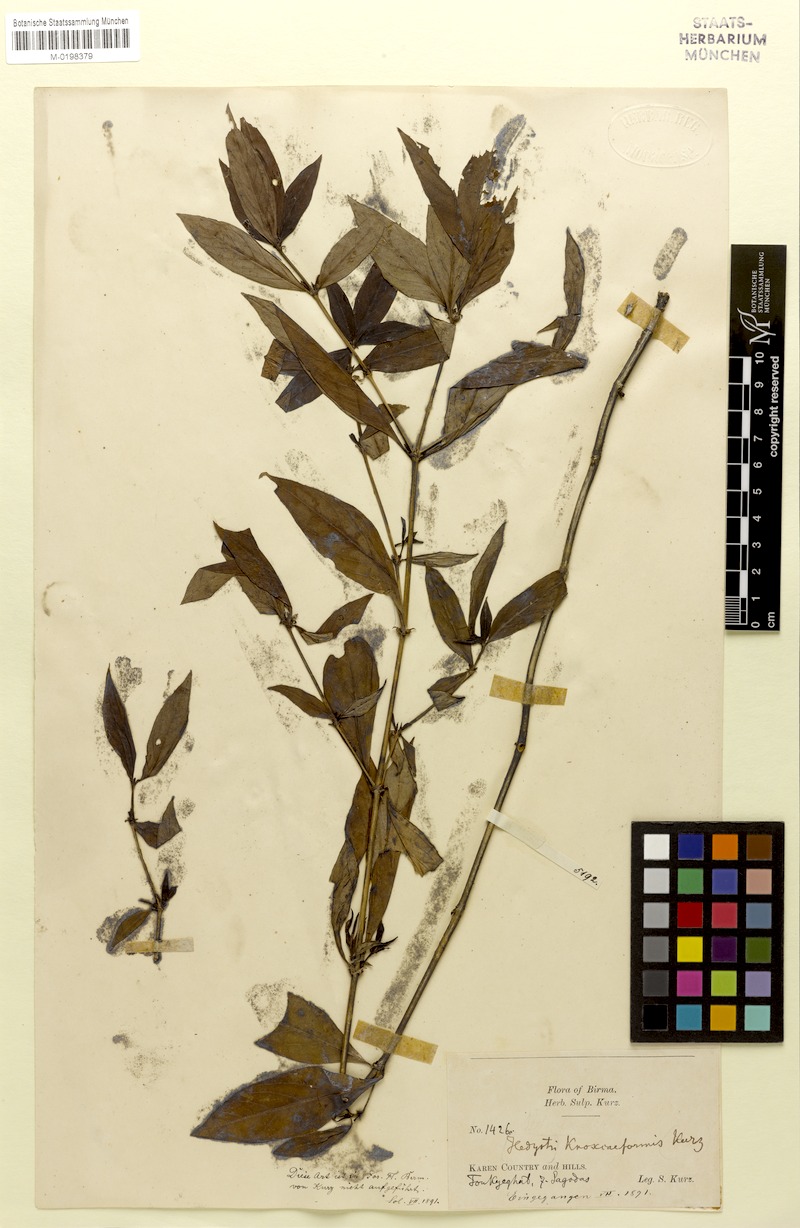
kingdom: Plantae
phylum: Tracheophyta
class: Magnoliopsida
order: Gentianales
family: Rubiaceae
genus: Hedyotis
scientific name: Hedyotis
